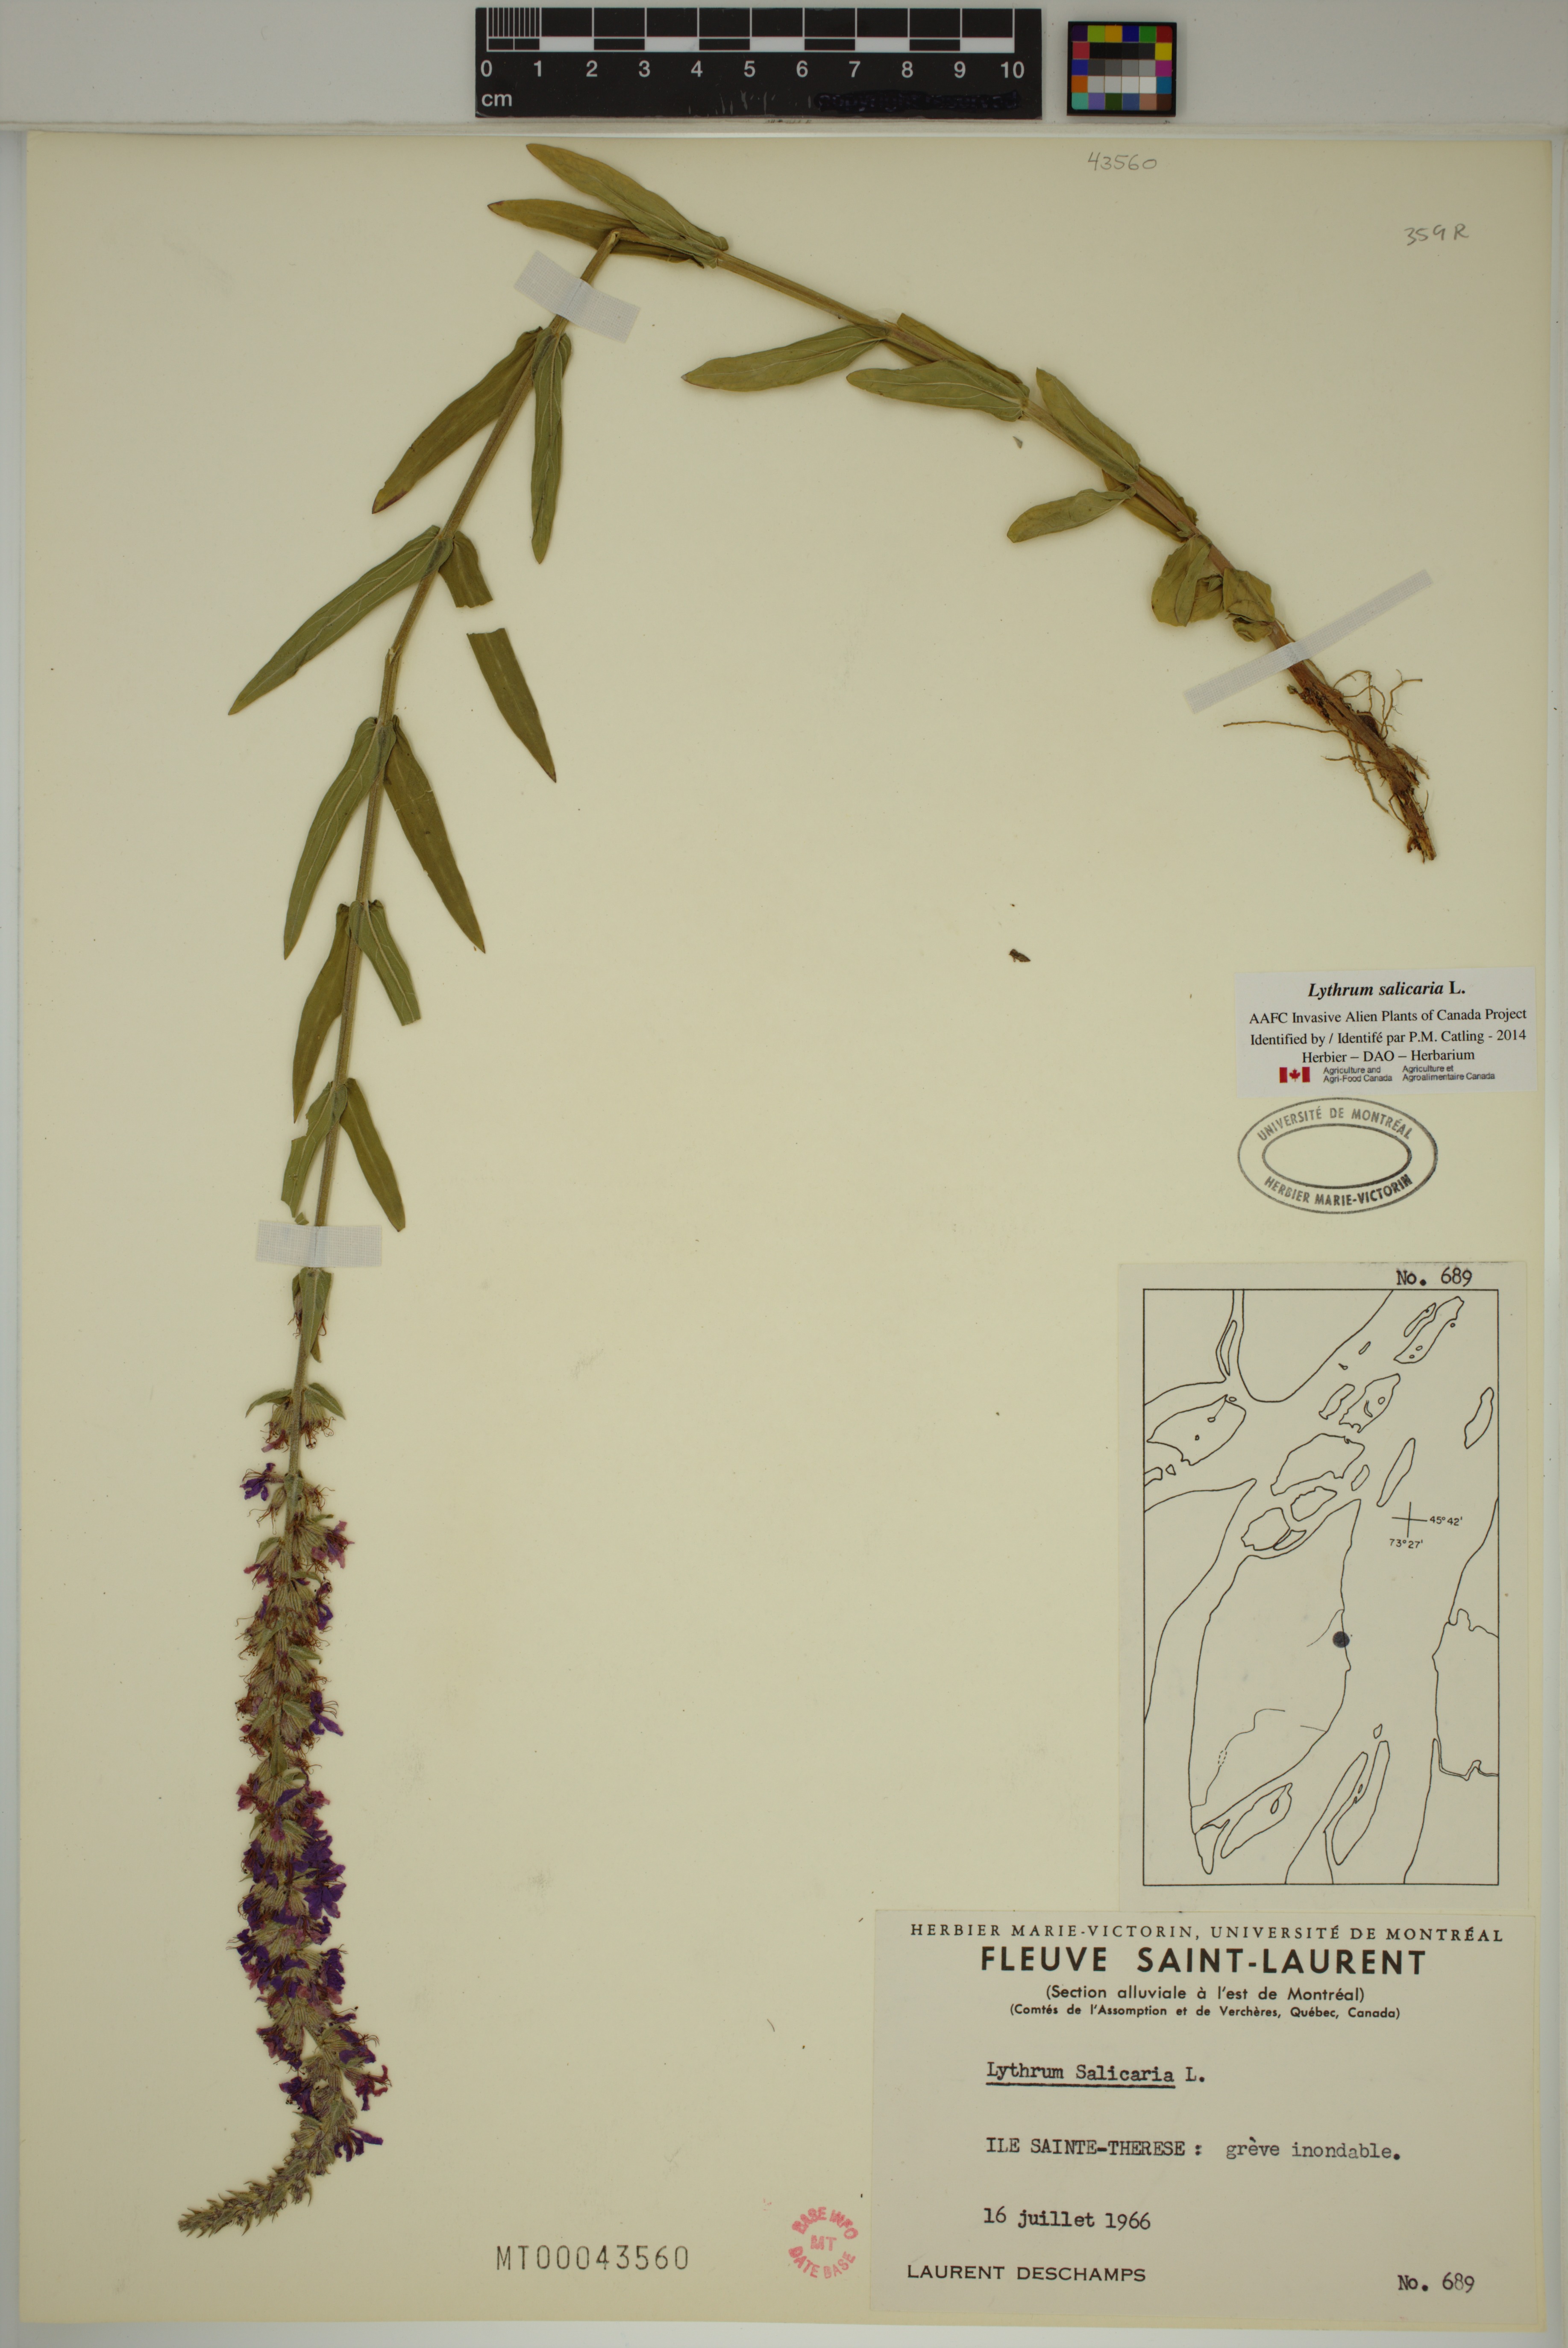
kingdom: Plantae
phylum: Tracheophyta
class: Magnoliopsida
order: Myrtales
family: Lythraceae
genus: Lythrum
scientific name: Lythrum salicaria
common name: Purple loosestrife
